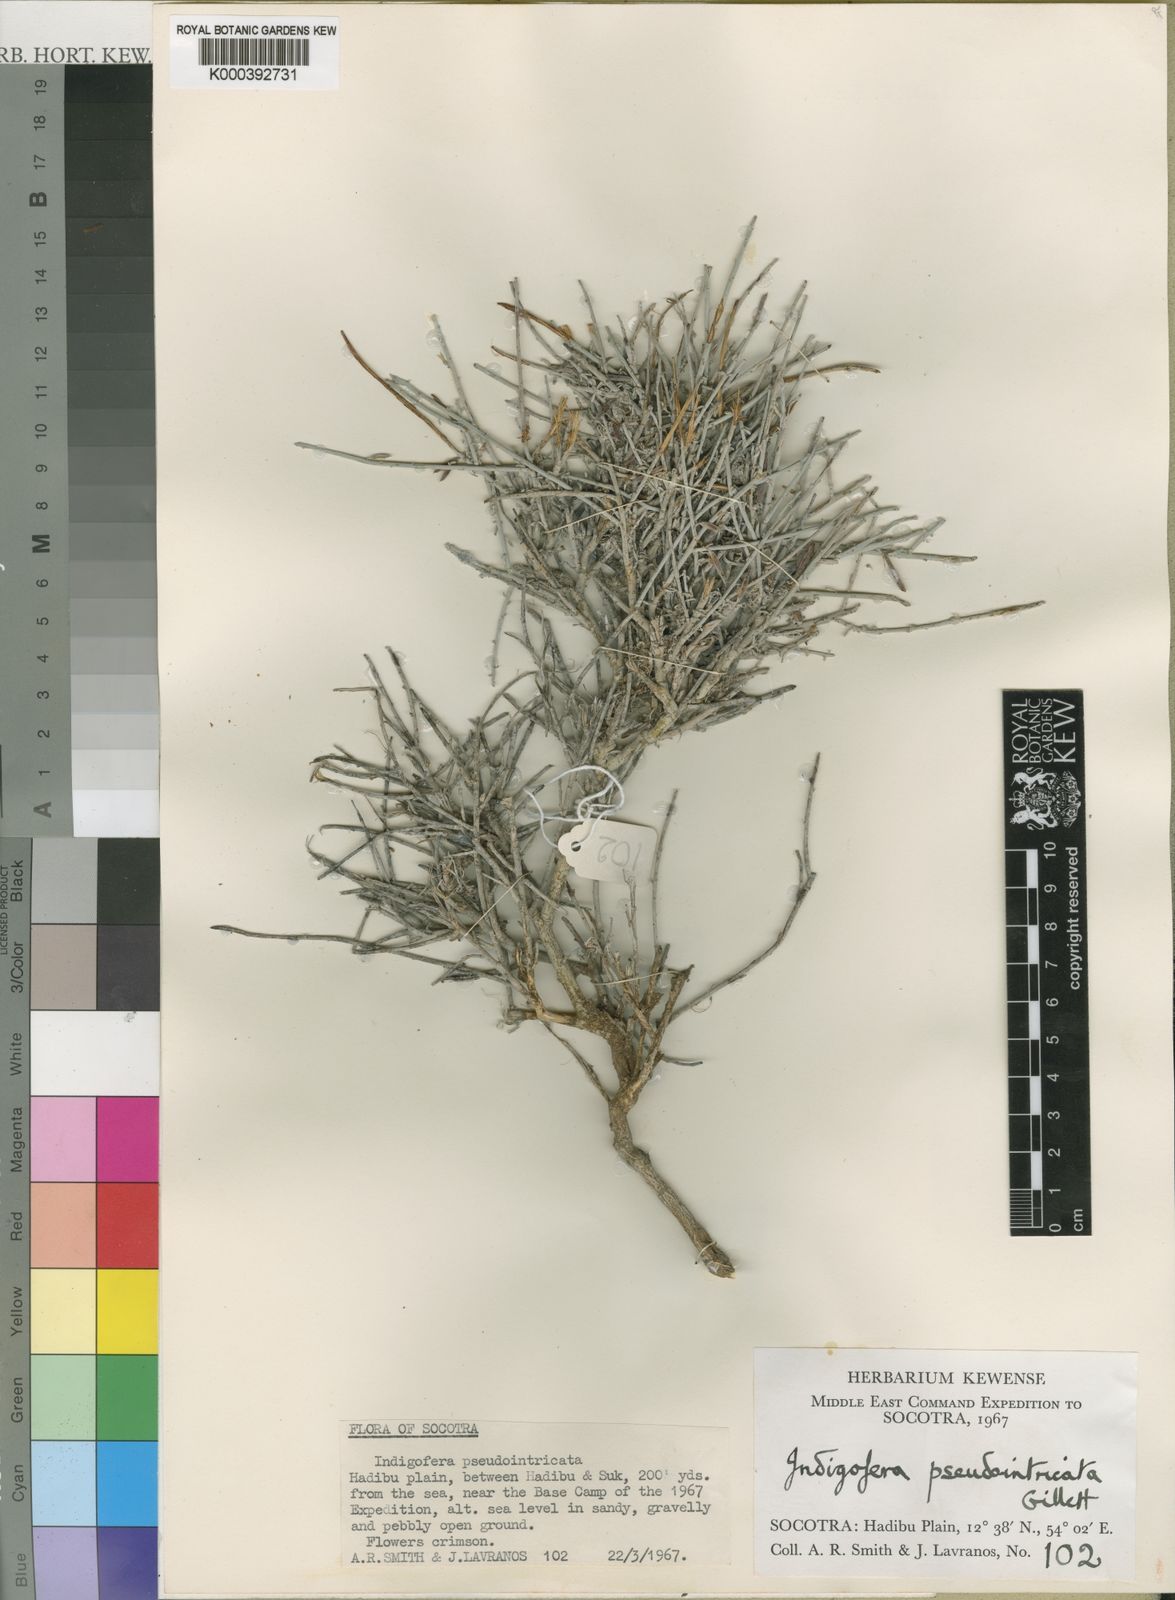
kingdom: Plantae
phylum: Tracheophyta
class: Magnoliopsida
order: Fabales
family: Fabaceae
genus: Indigofera
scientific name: Indigofera pseudointricata
